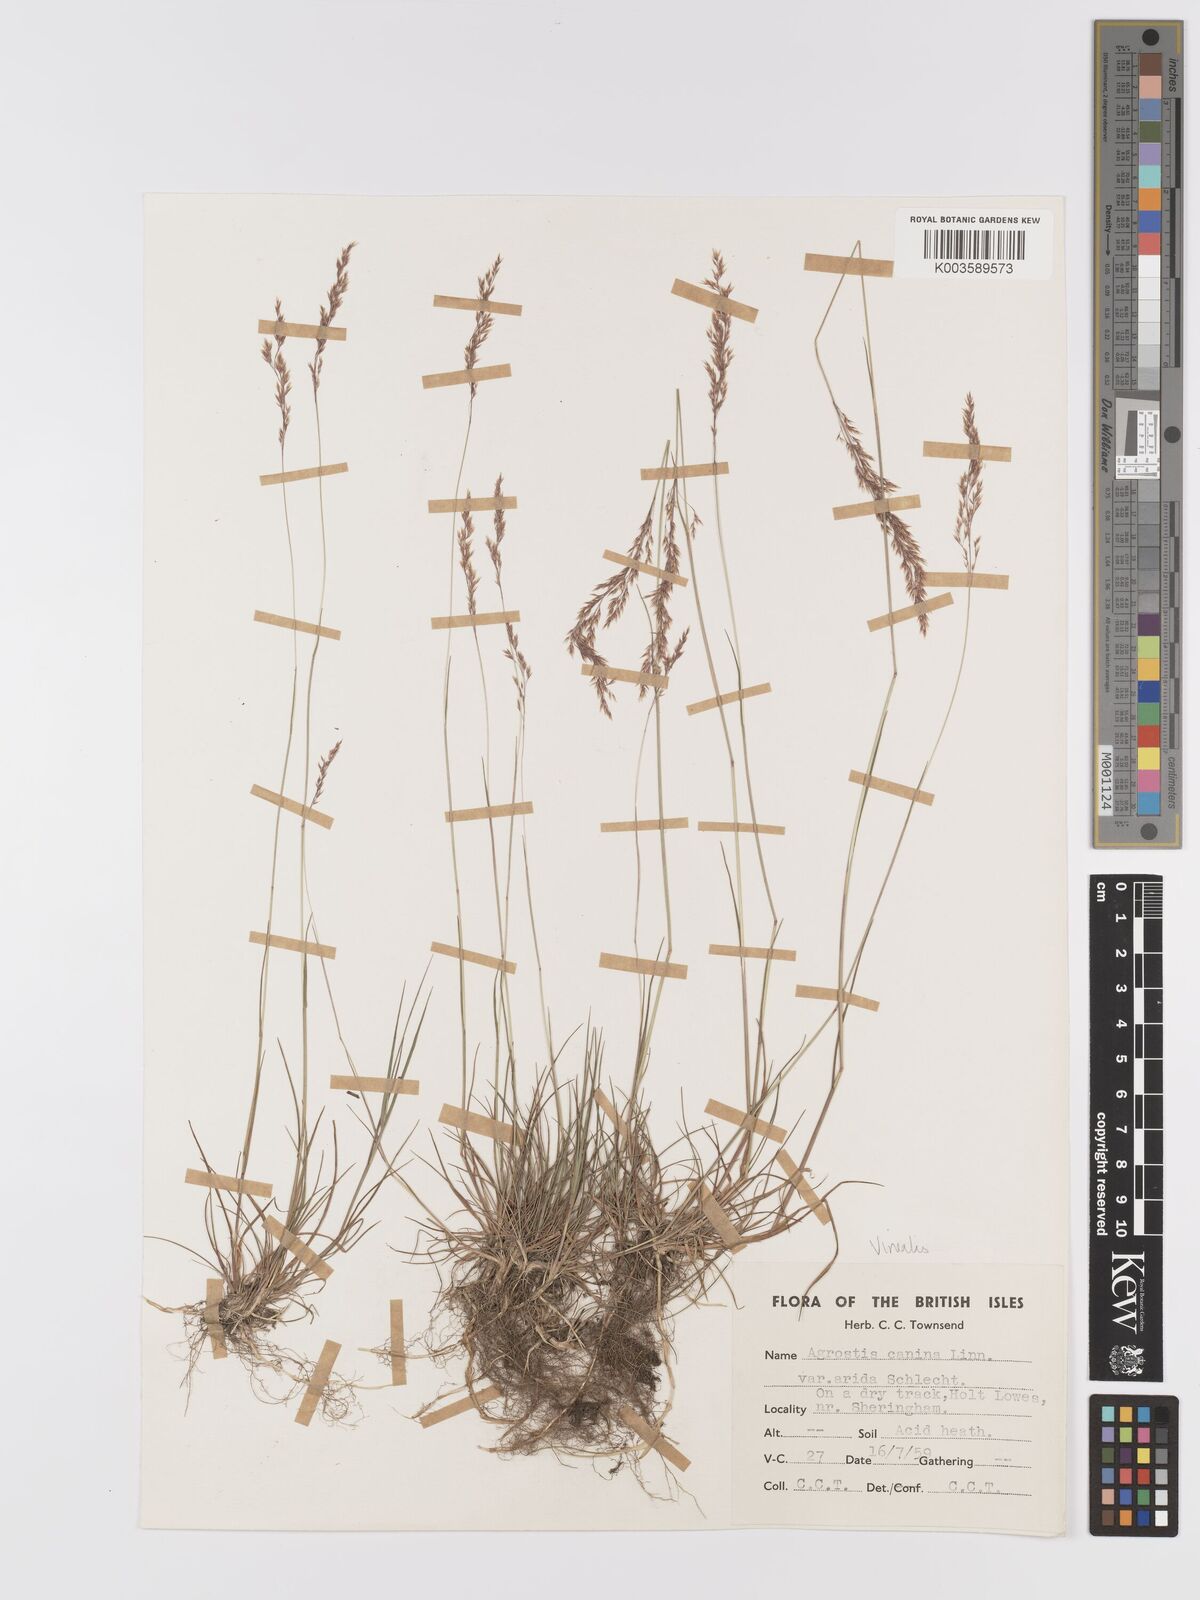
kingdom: Plantae
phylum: Tracheophyta
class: Liliopsida
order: Poales
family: Poaceae
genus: Agrostis
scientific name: Agrostis
